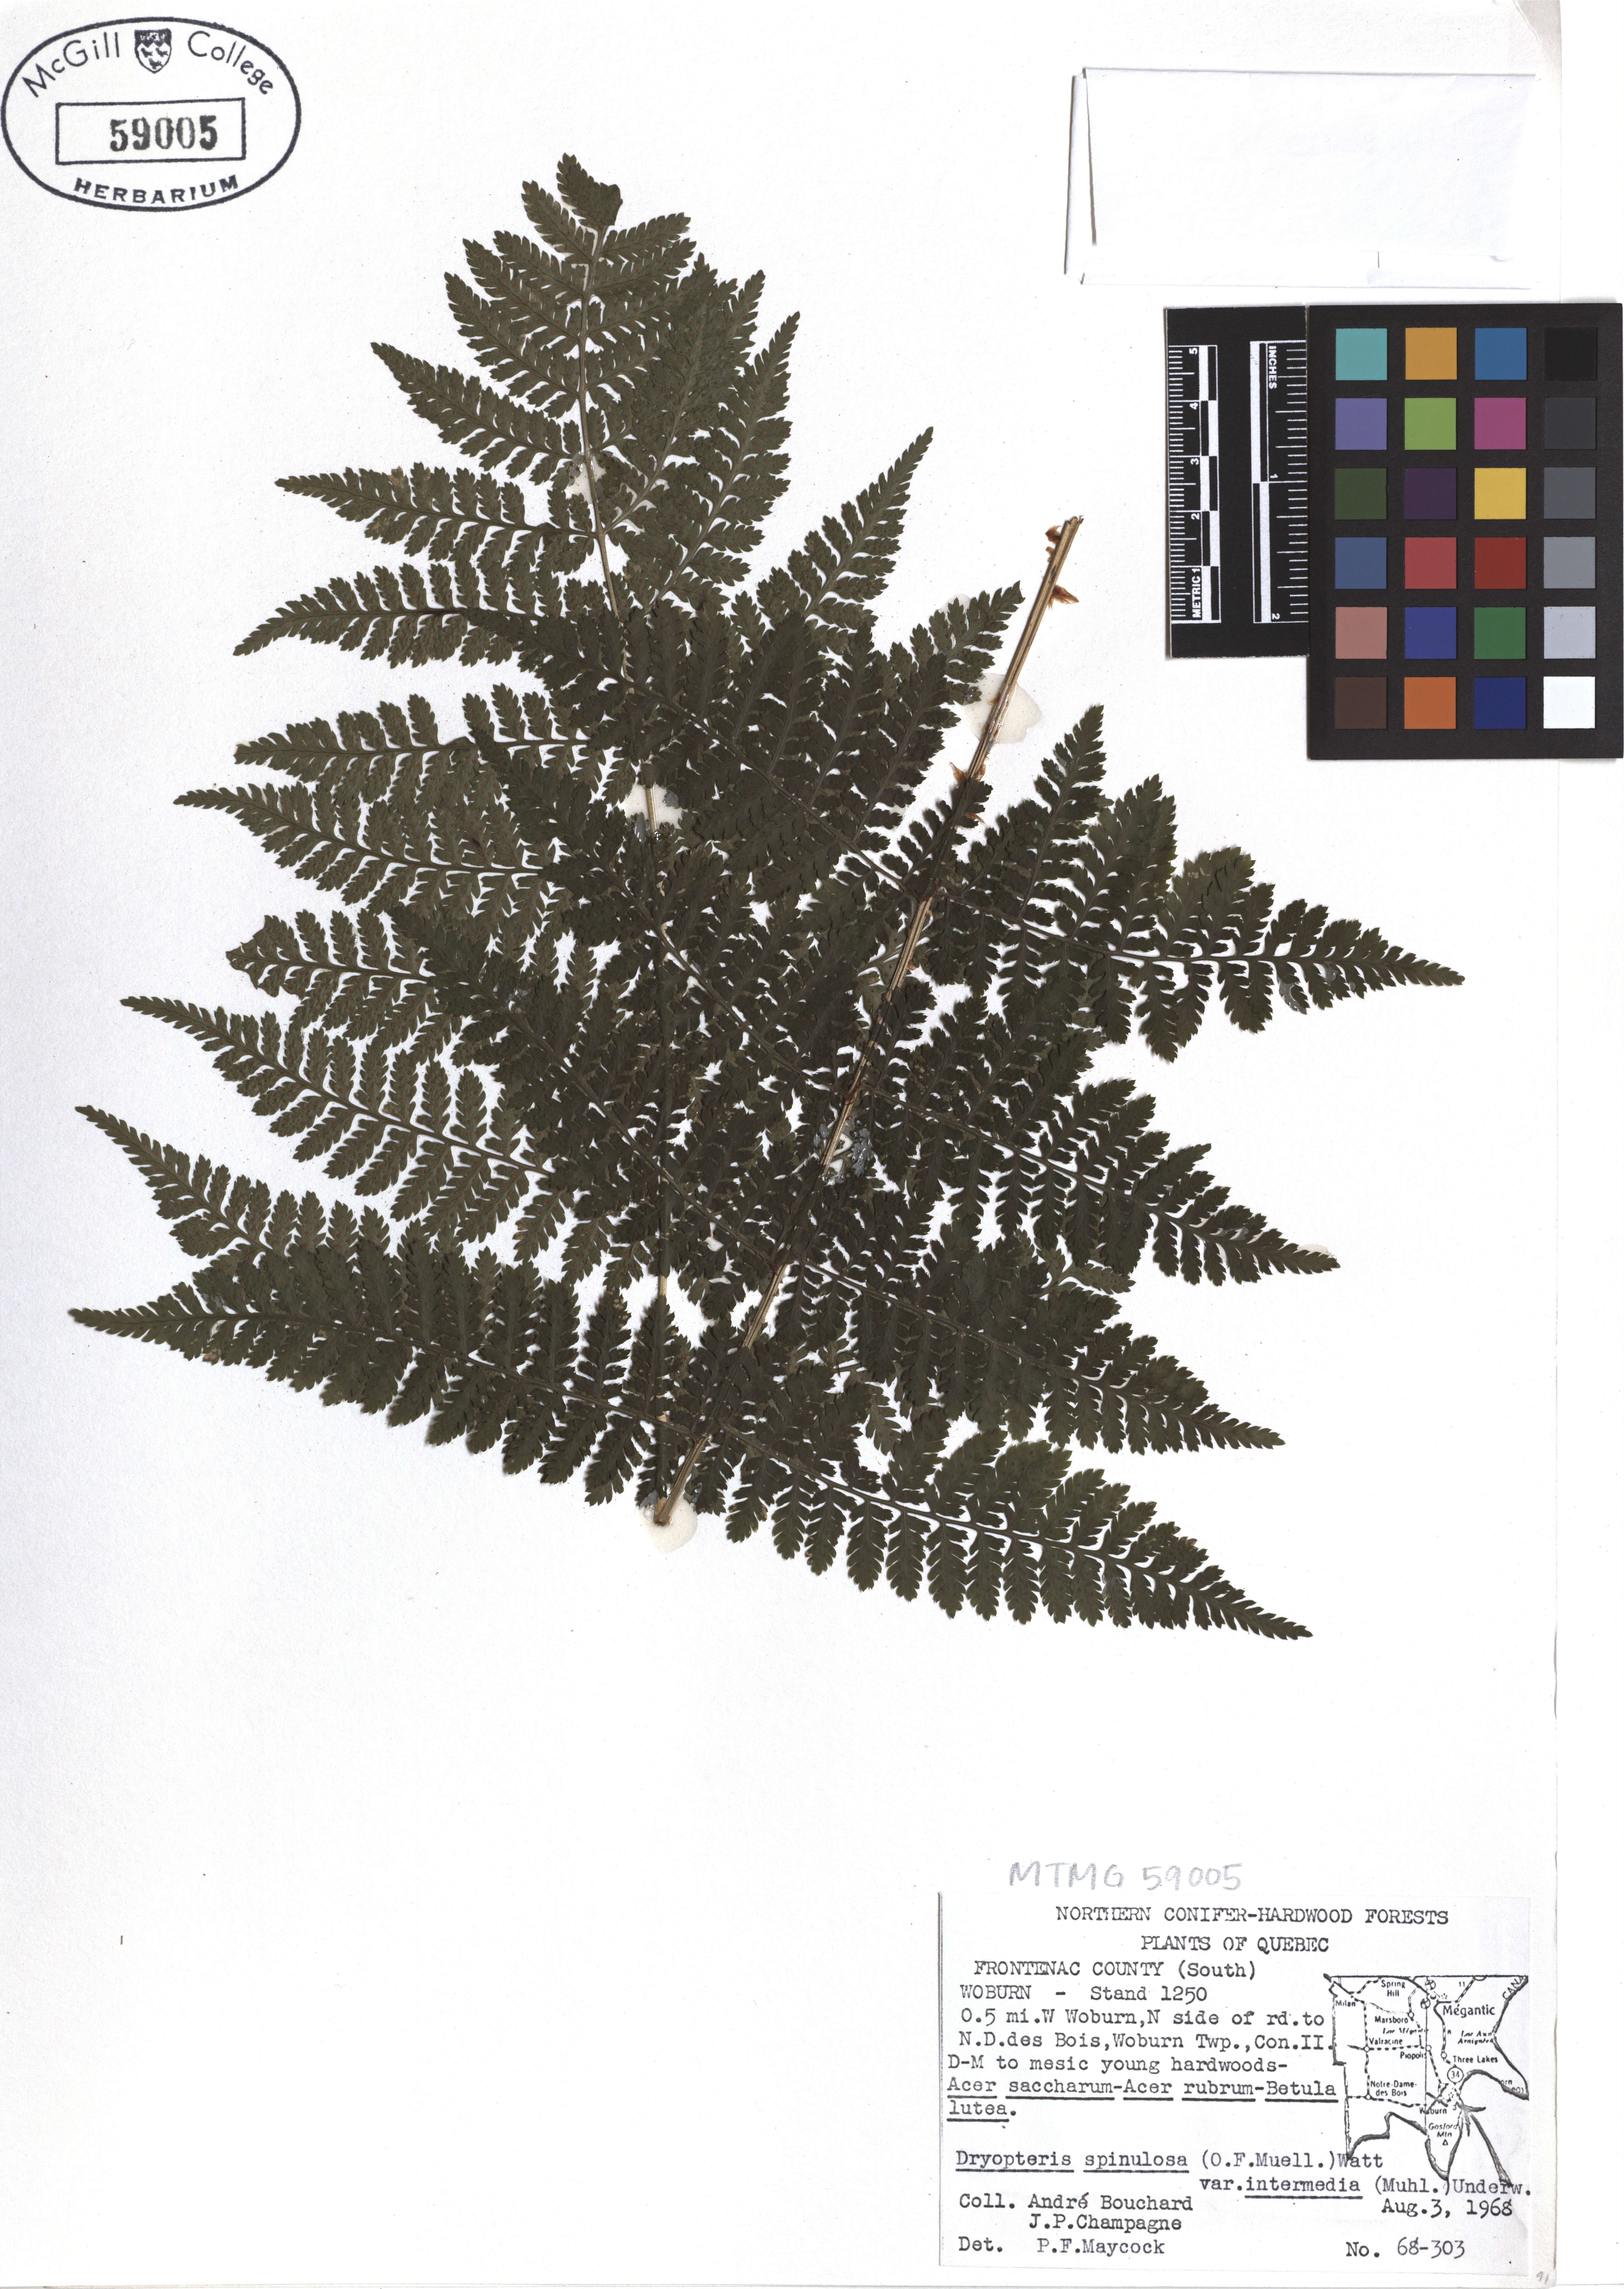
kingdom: Plantae
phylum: Tracheophyta
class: Polypodiopsida
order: Polypodiales
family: Dryopteridaceae
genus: Dryopteris
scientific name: Dryopteris intermedia
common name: Evergreen wood fern
